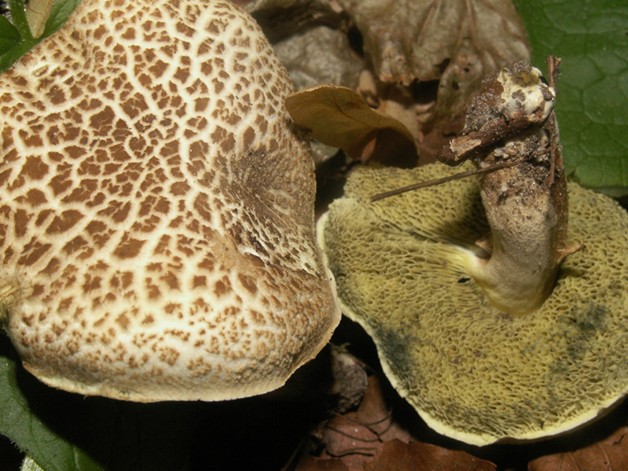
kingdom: Fungi
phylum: Basidiomycota
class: Agaricomycetes
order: Boletales
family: Boletaceae
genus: Xerocomellus
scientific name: Xerocomellus porosporus
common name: hvidsprukken rørhat
